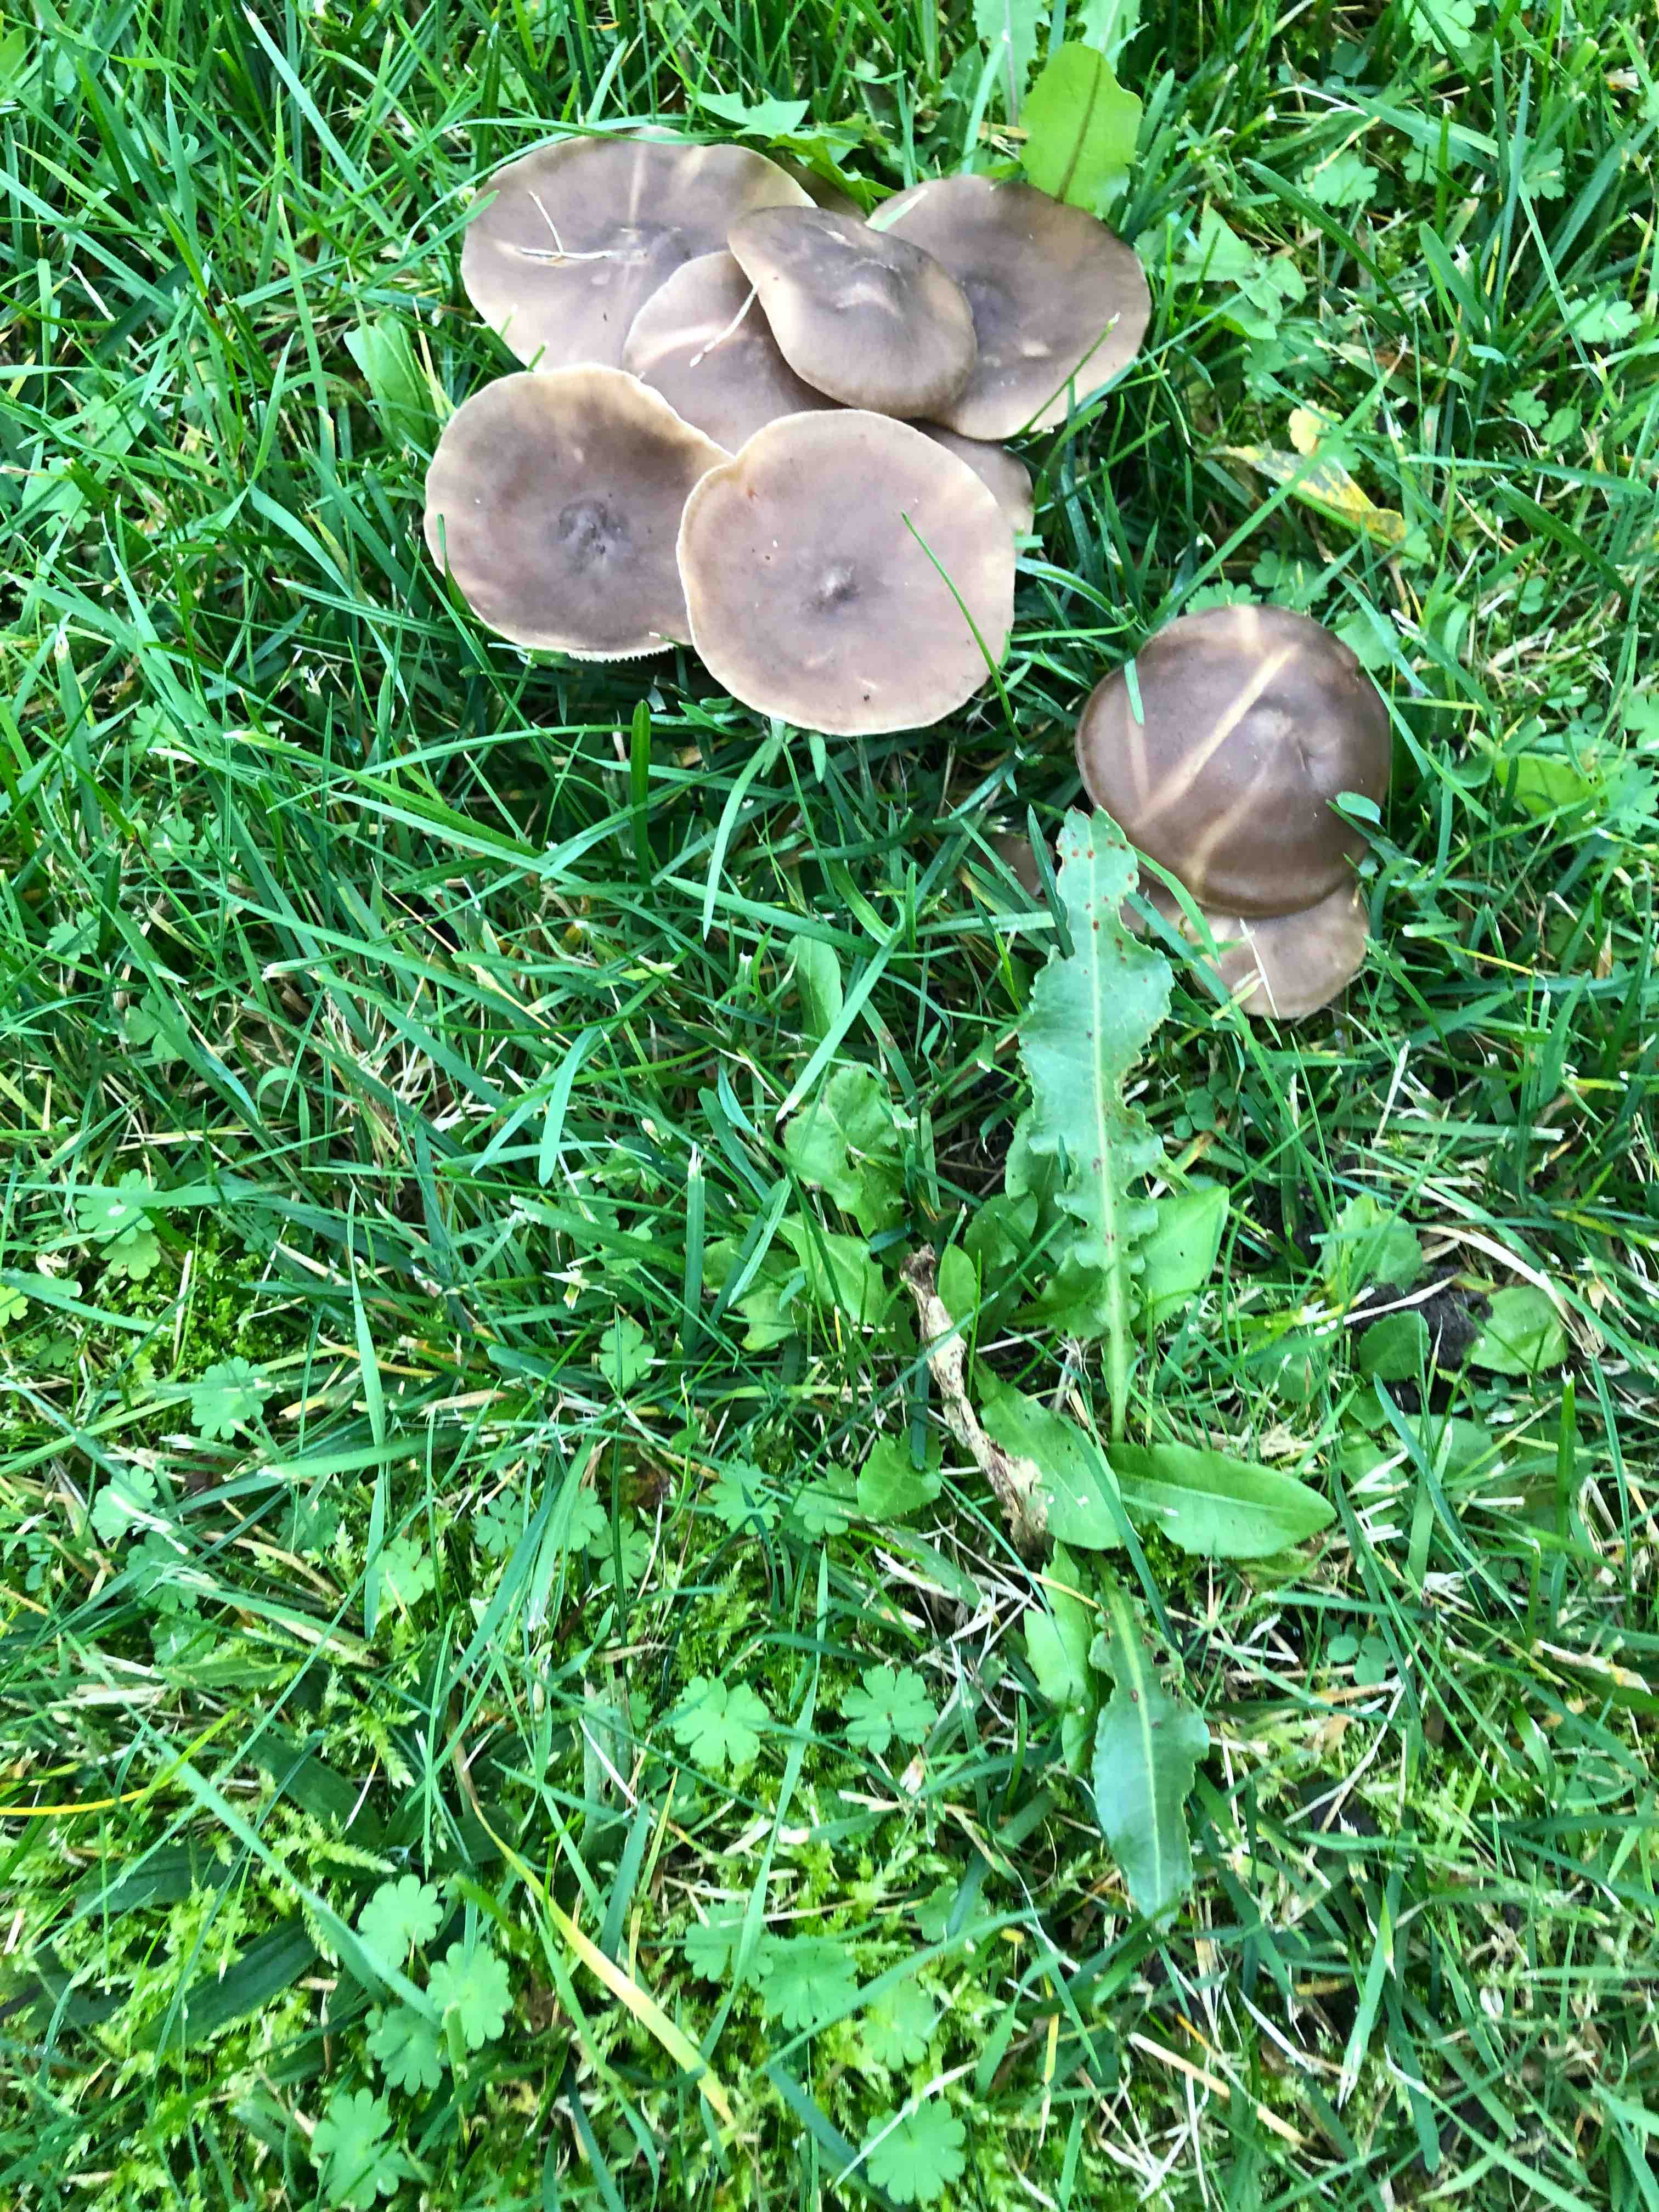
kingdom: Fungi
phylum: Basidiomycota
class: Agaricomycetes
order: Agaricales
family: Lyophyllaceae
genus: Lyophyllum
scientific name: Lyophyllum
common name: gråblad
